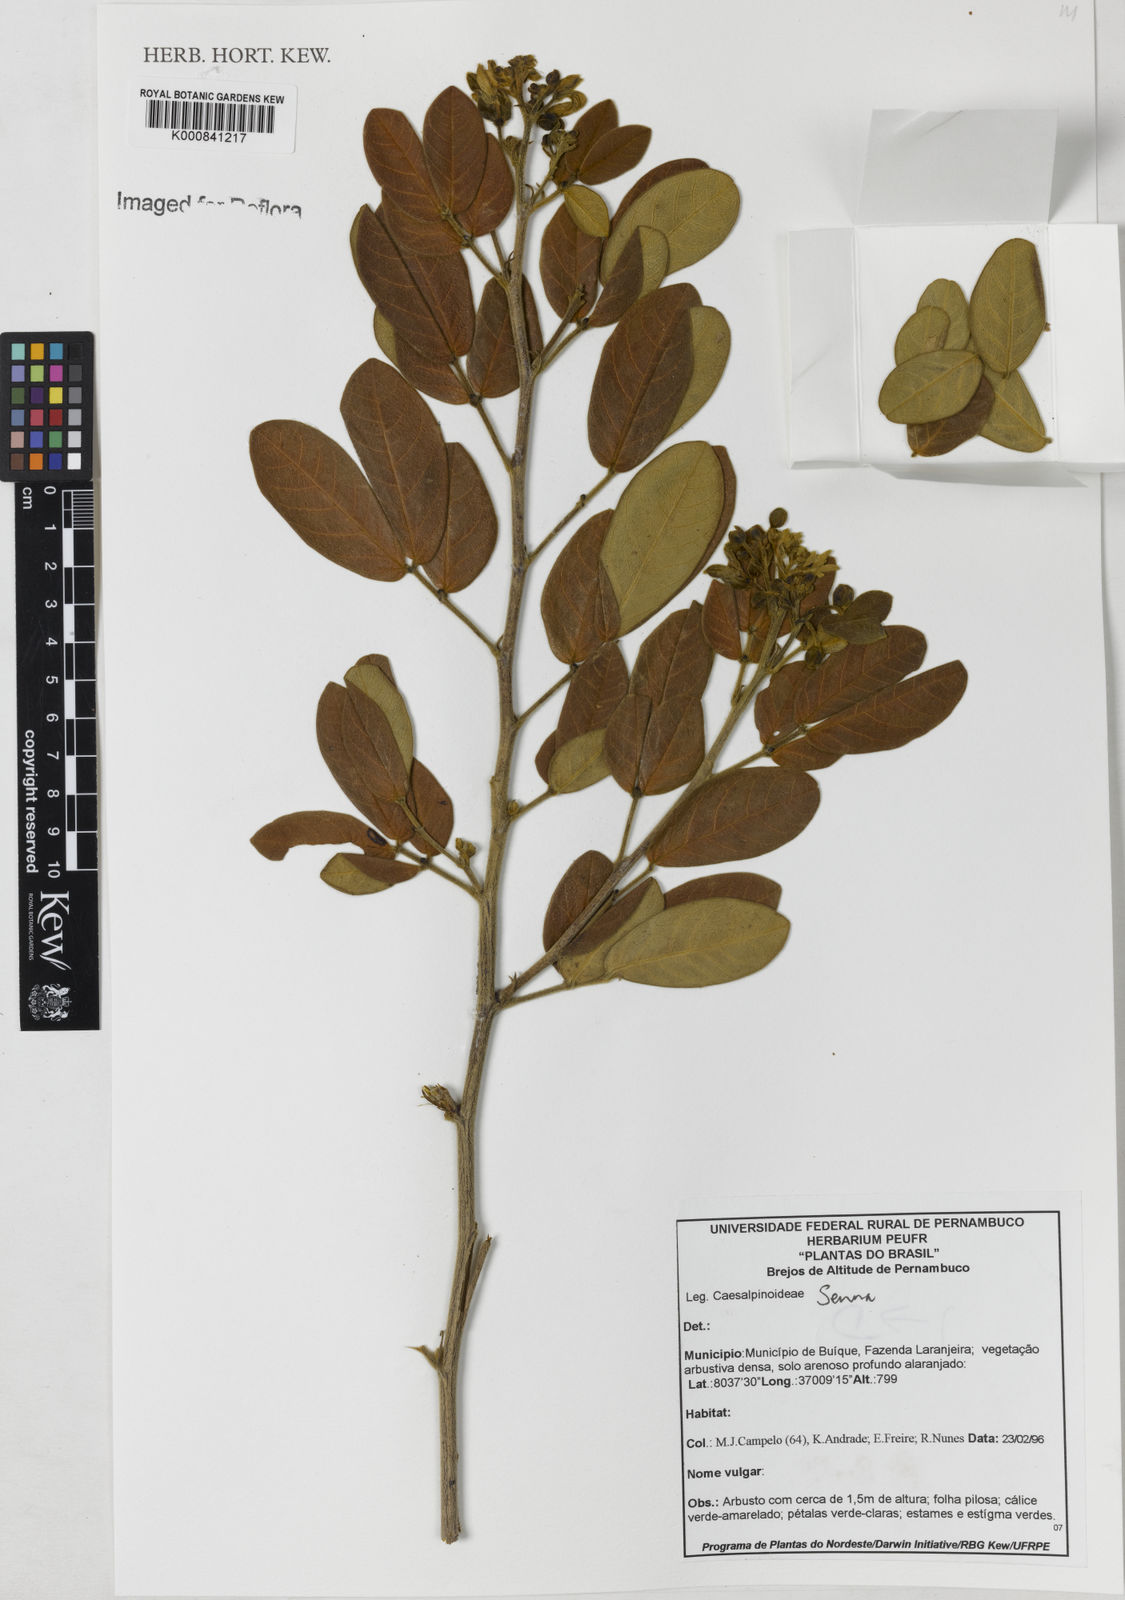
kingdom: Plantae
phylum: Tracheophyta
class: Magnoliopsida
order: Fabales
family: Fabaceae
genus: Senna
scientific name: Senna macranthera
